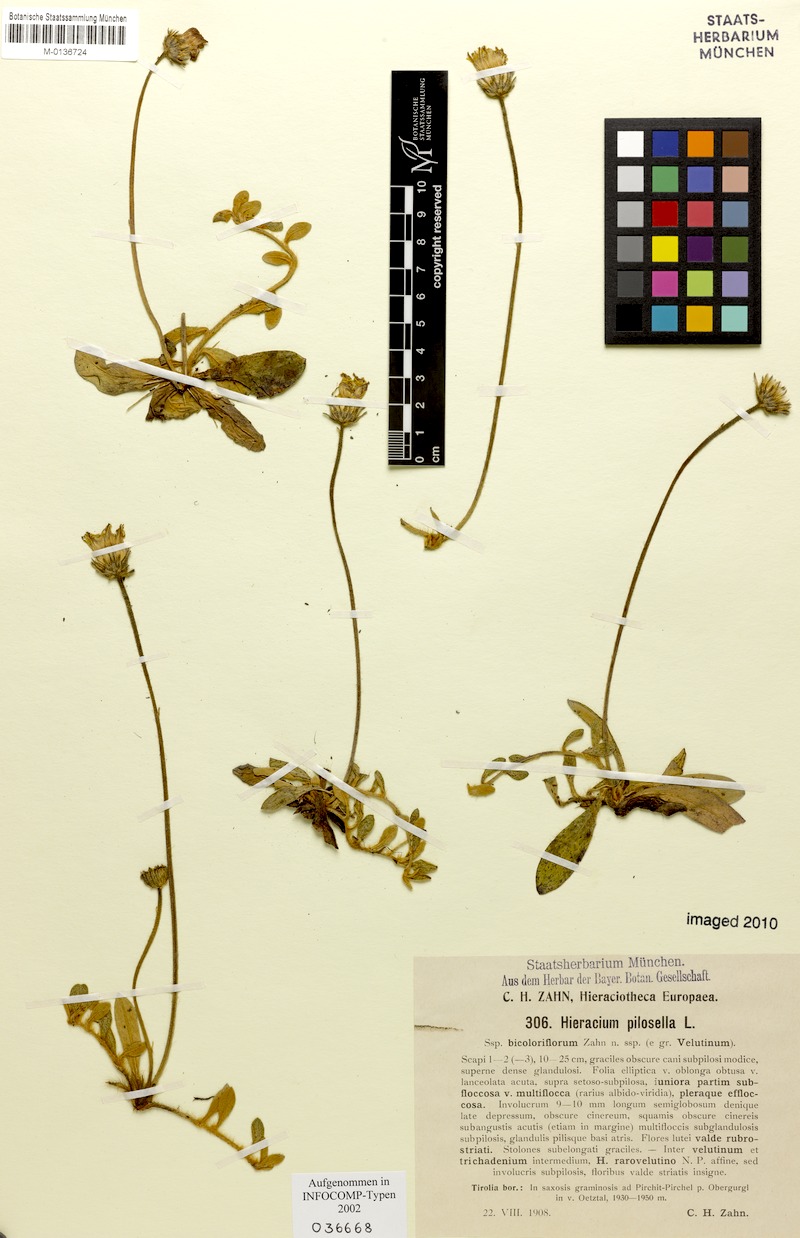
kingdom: Plantae
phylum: Tracheophyta
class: Magnoliopsida
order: Asterales
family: Asteraceae
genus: Pilosella
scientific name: Pilosella officinarum
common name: Mouse-ear hawkweed
